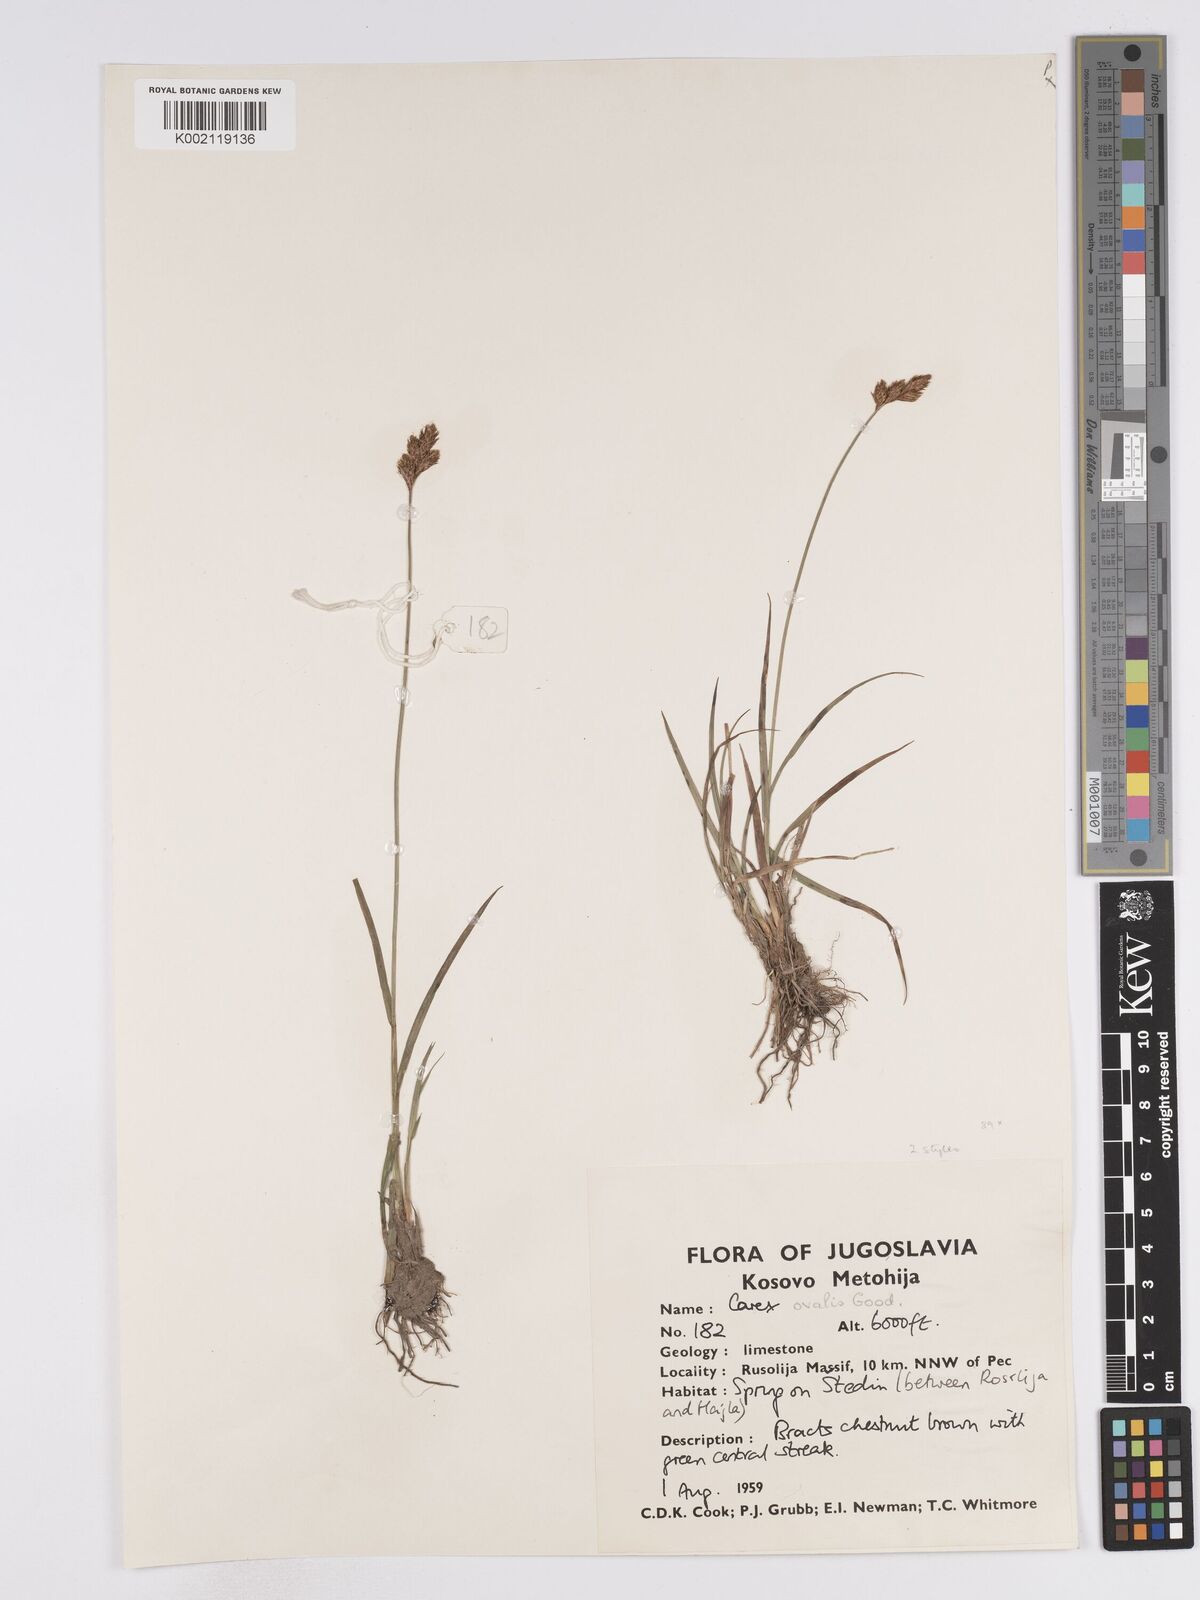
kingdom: Plantae
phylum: Tracheophyta
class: Liliopsida
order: Poales
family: Cyperaceae
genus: Carex
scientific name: Carex leporina
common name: Oval sedge
